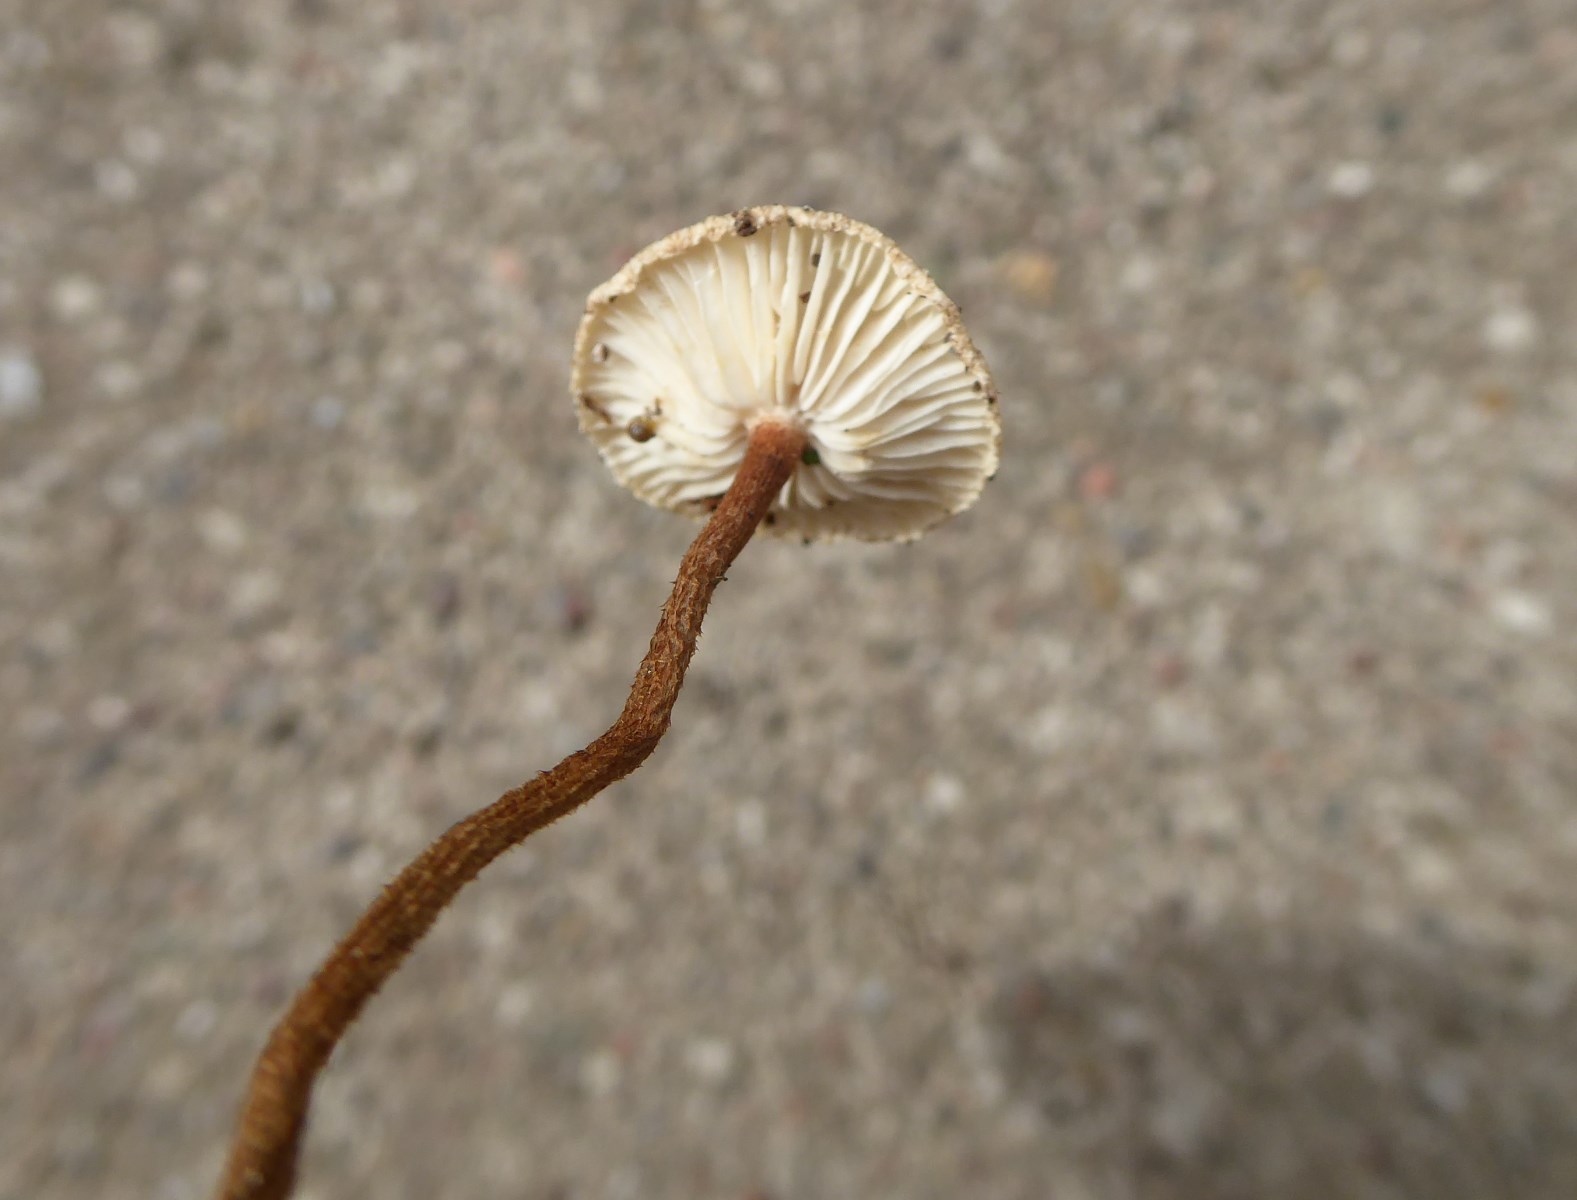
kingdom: Fungi
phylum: Basidiomycota
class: Agaricomycetes
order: Agaricales
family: Marasmiaceae
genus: Crinipellis
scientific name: Crinipellis scabella
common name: børstefod
